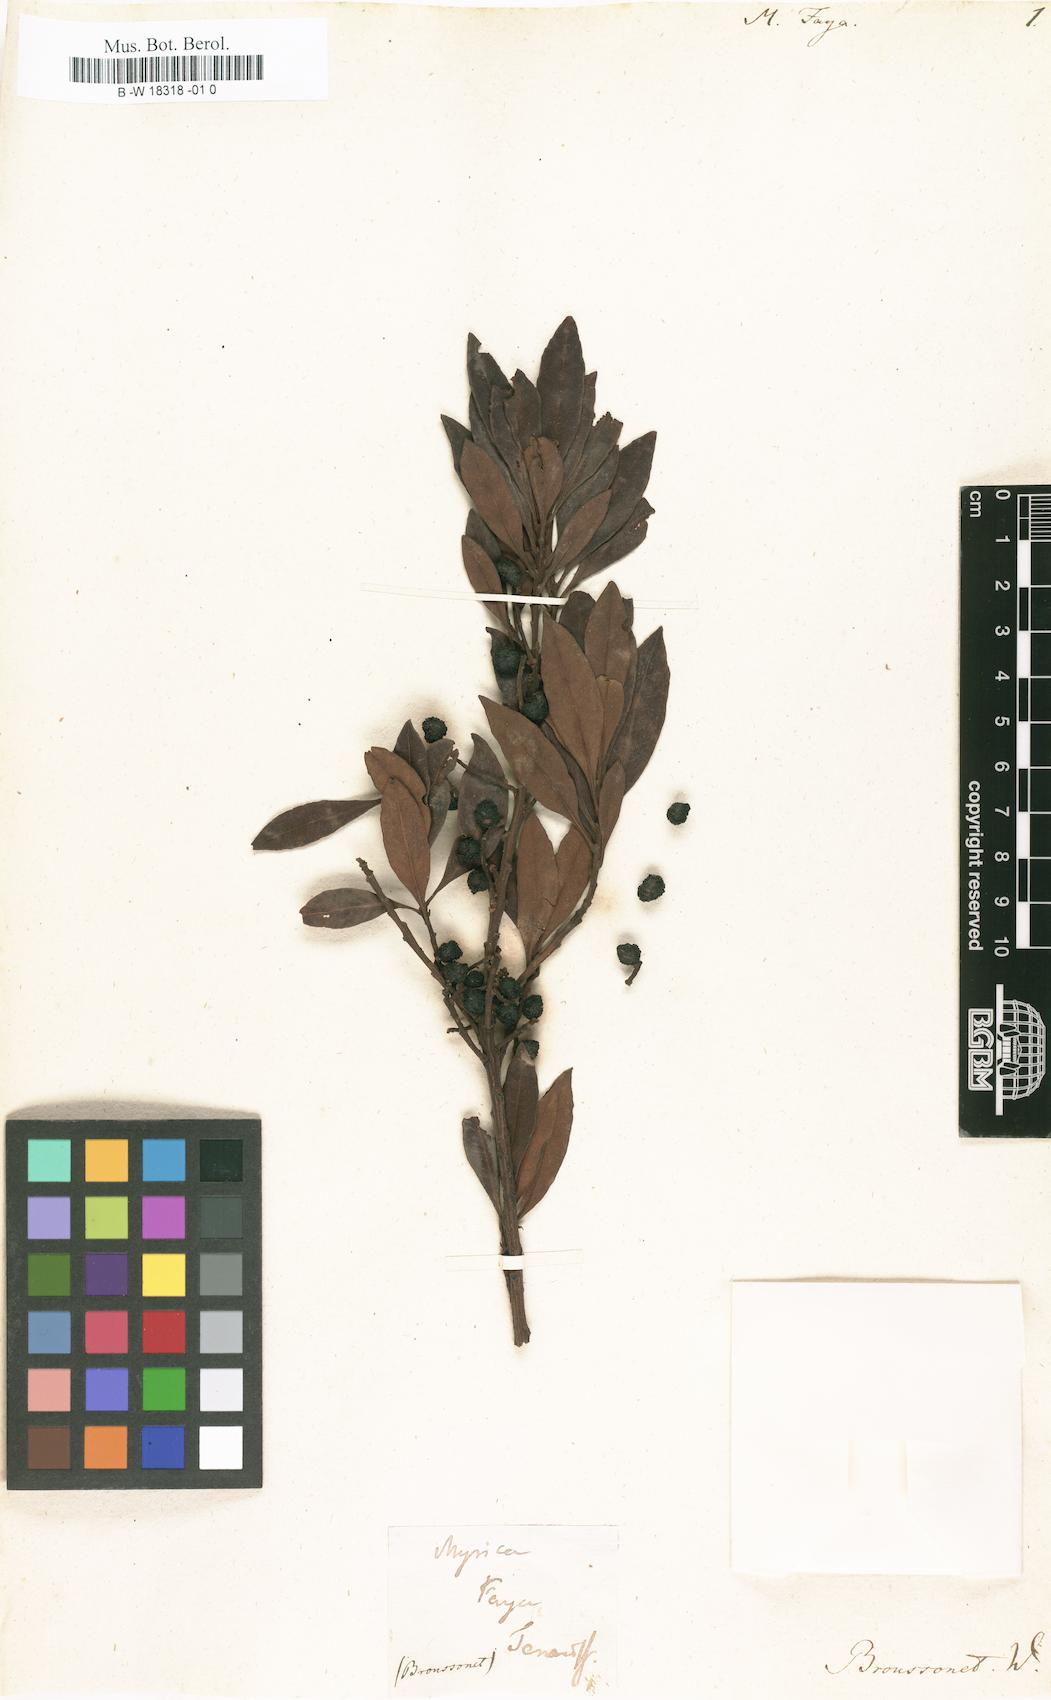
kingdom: Plantae
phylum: Tracheophyta
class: Magnoliopsida
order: Fagales
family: Myricaceae
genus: Morella
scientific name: Morella faya
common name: Firetree
